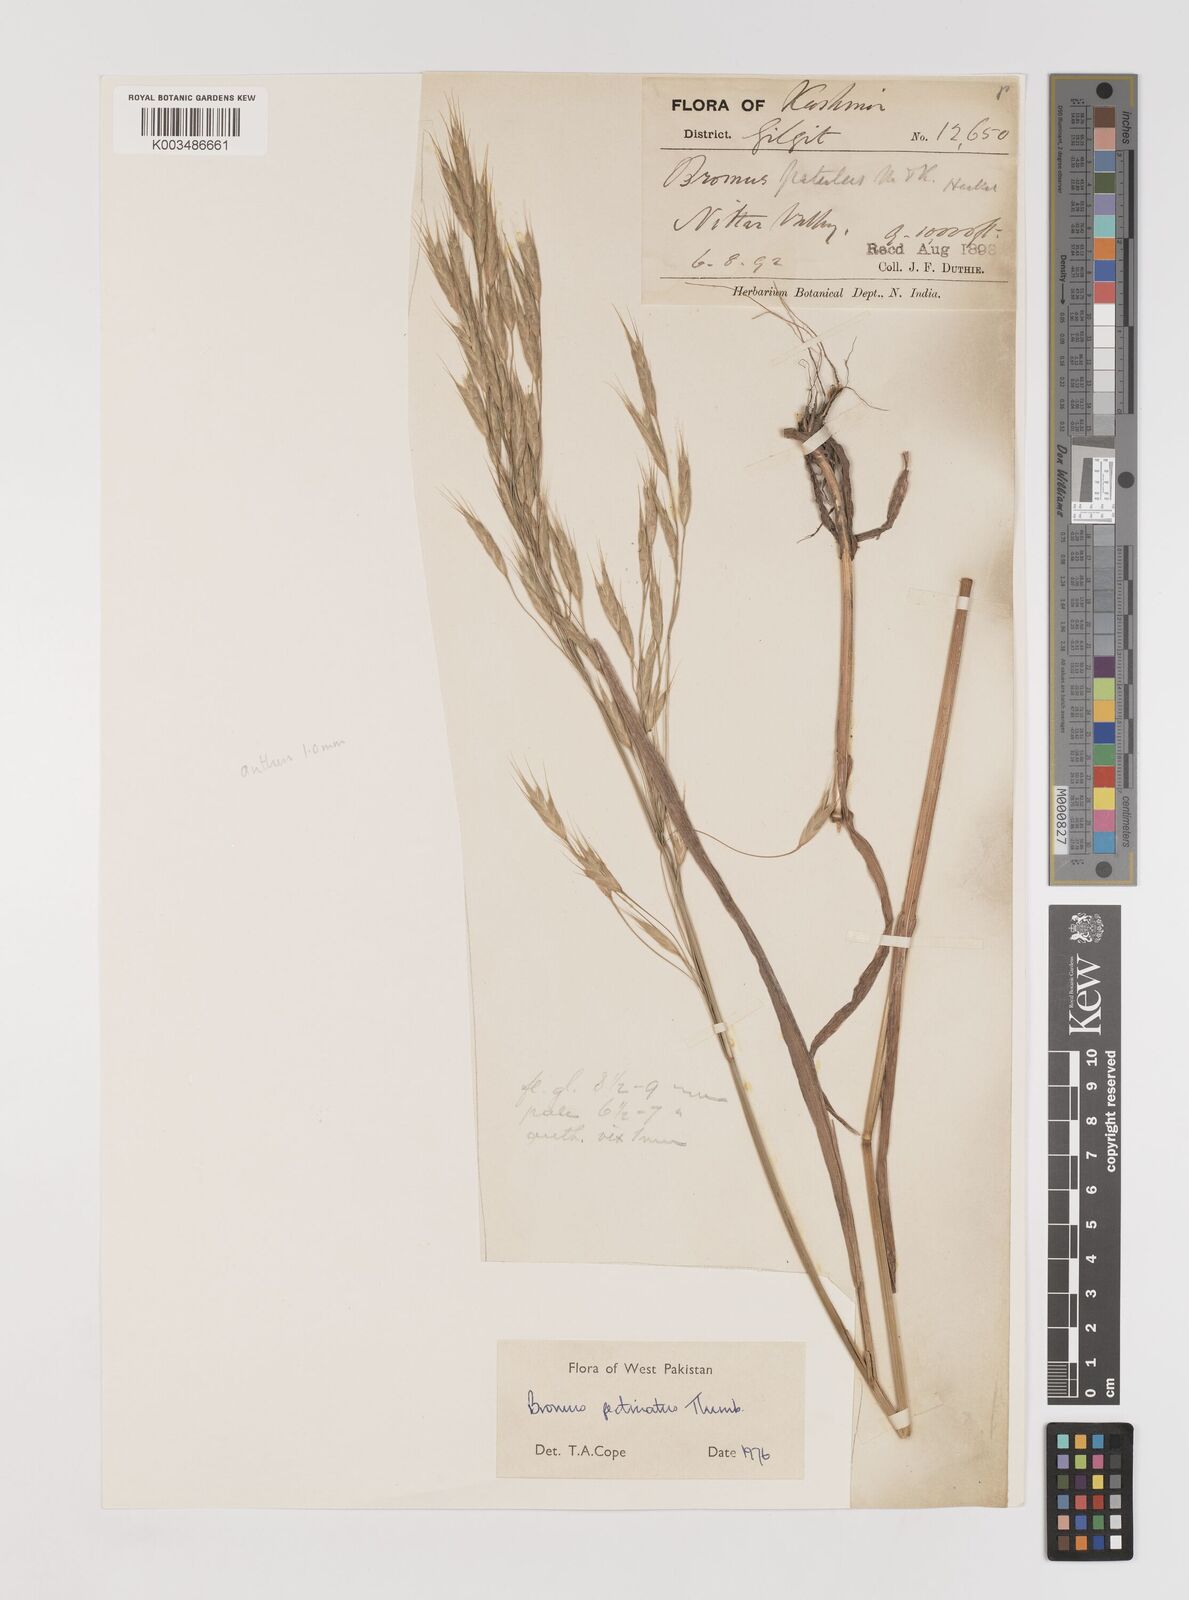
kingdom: Plantae
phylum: Tracheophyta
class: Liliopsida
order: Poales
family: Poaceae
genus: Bromus
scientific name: Bromus pectinatus
